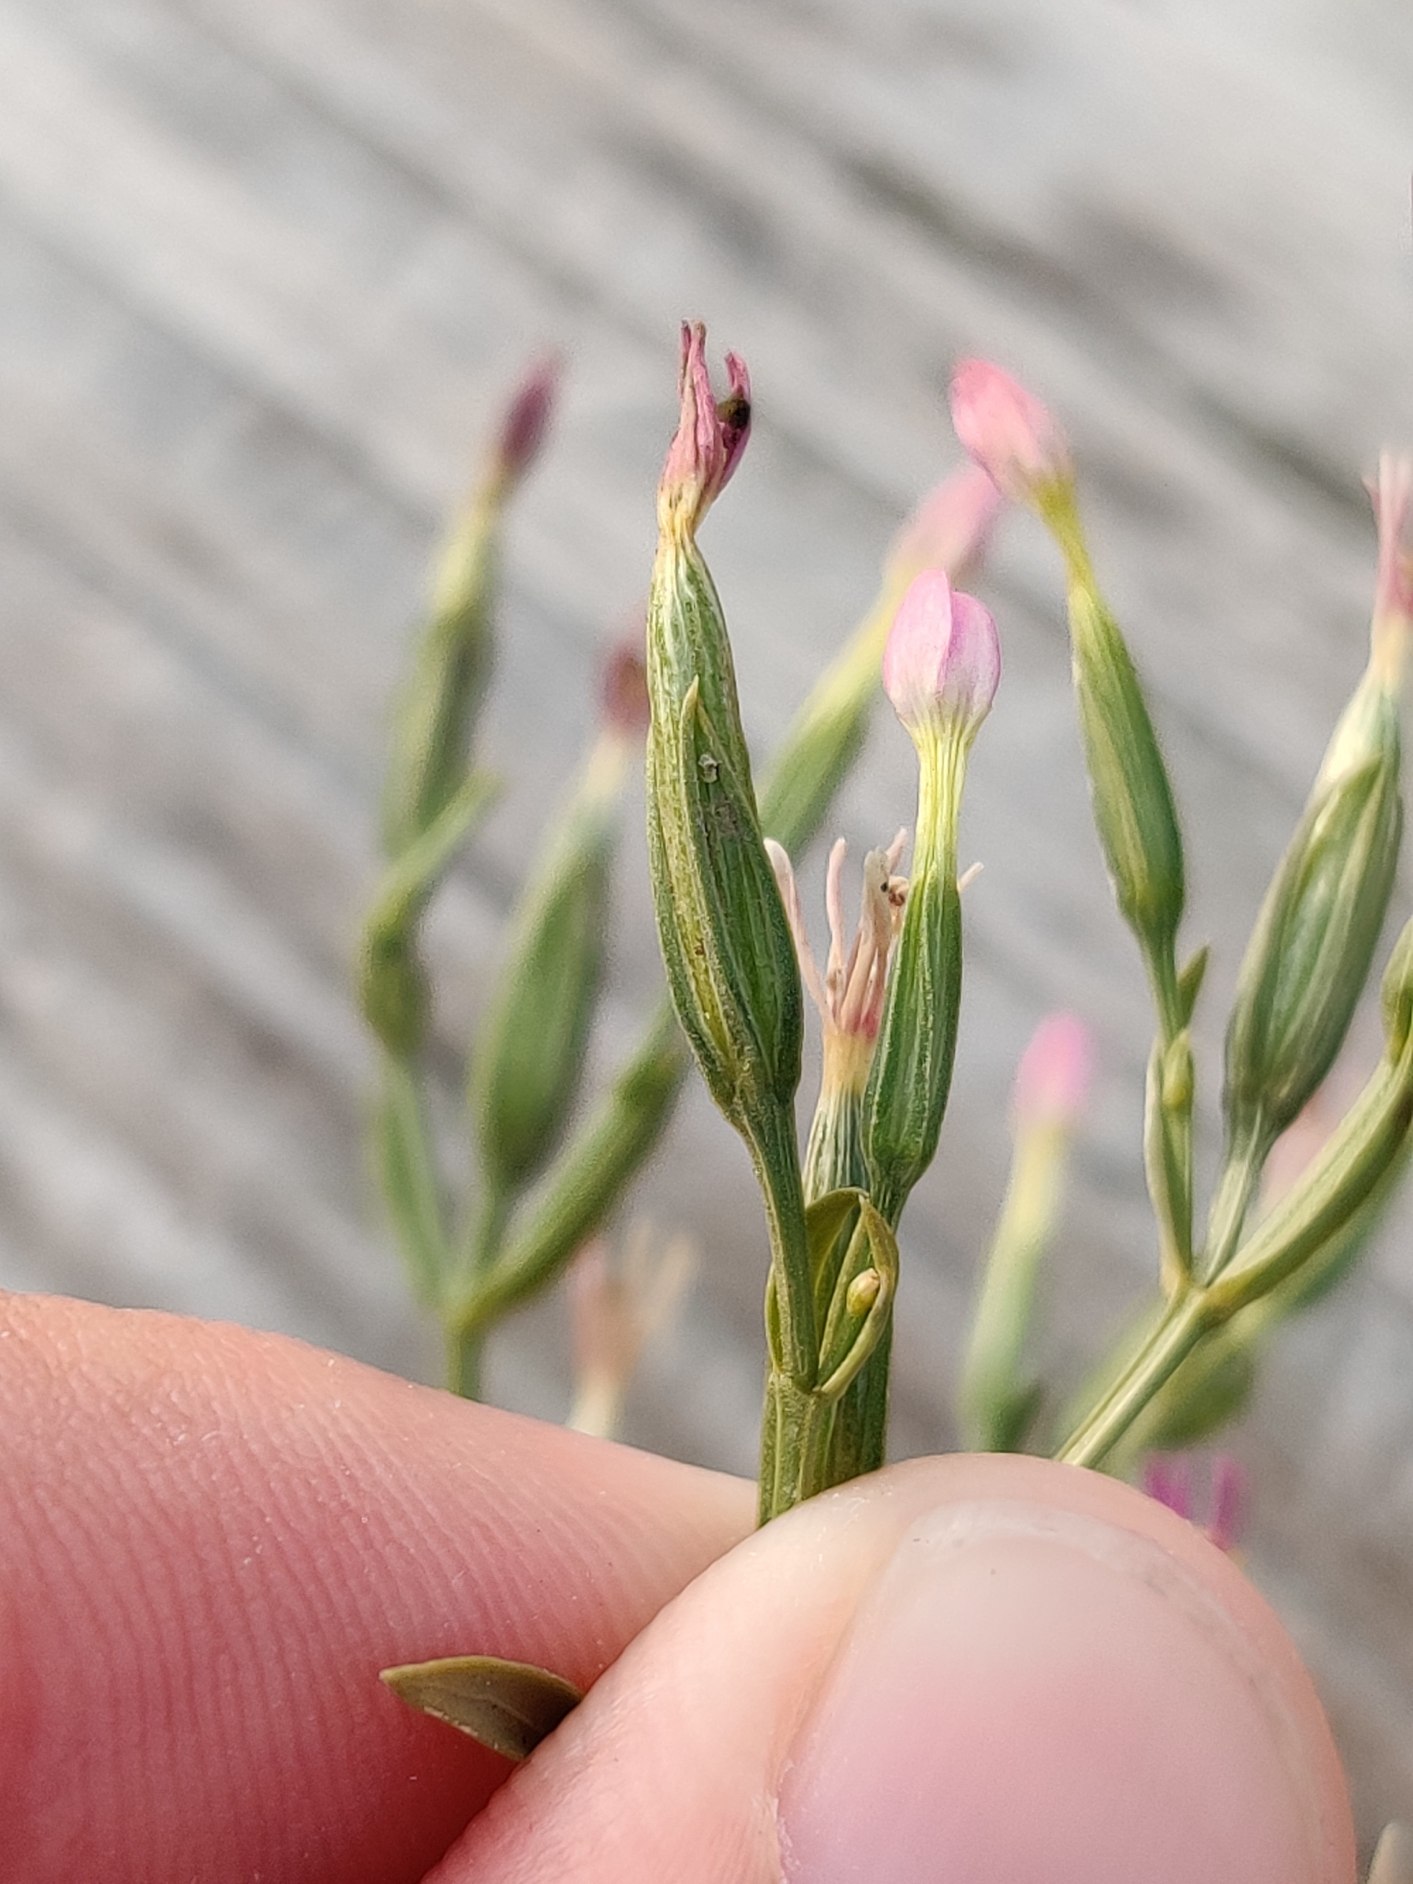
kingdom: Plantae
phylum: Tracheophyta
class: Magnoliopsida
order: Gentianales
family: Gentianaceae
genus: Centaurium
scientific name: Centaurium erythraea
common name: Mark-tusindgylden
